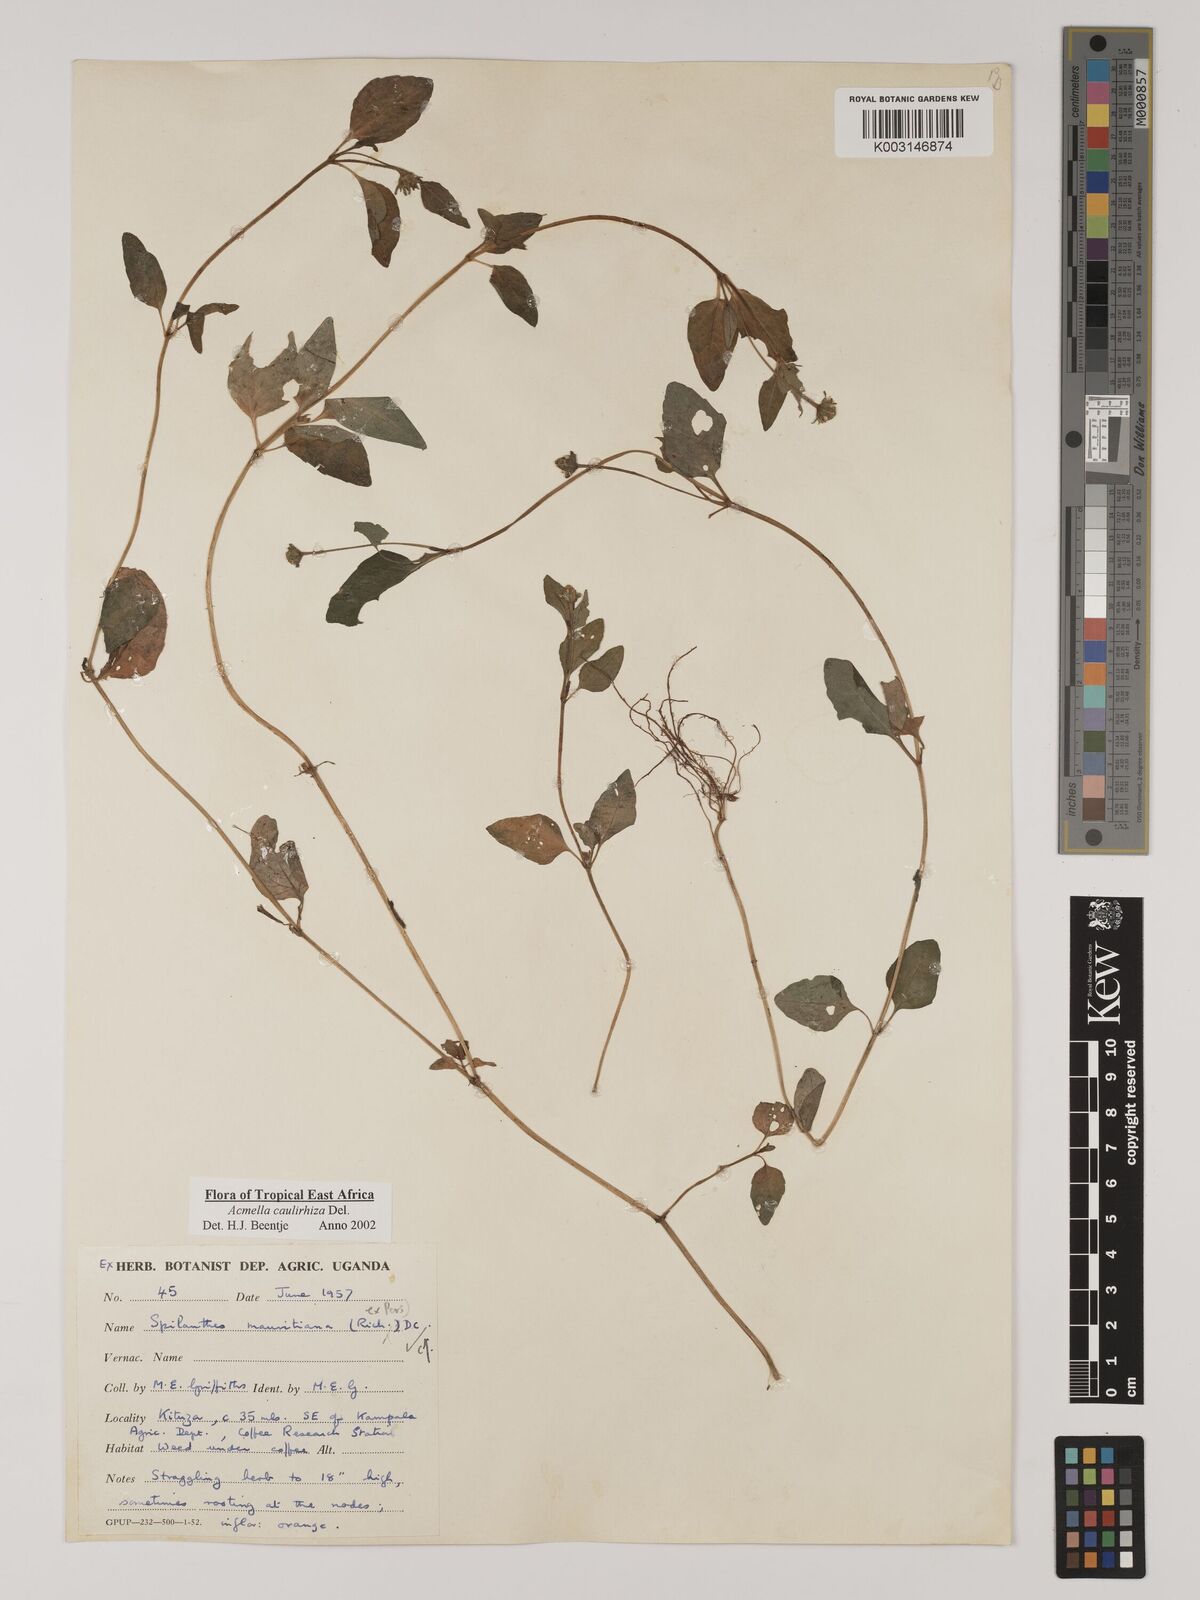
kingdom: Plantae
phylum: Tracheophyta
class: Magnoliopsida
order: Asterales
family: Asteraceae
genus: Acmella
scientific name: Acmella caulirhiza
